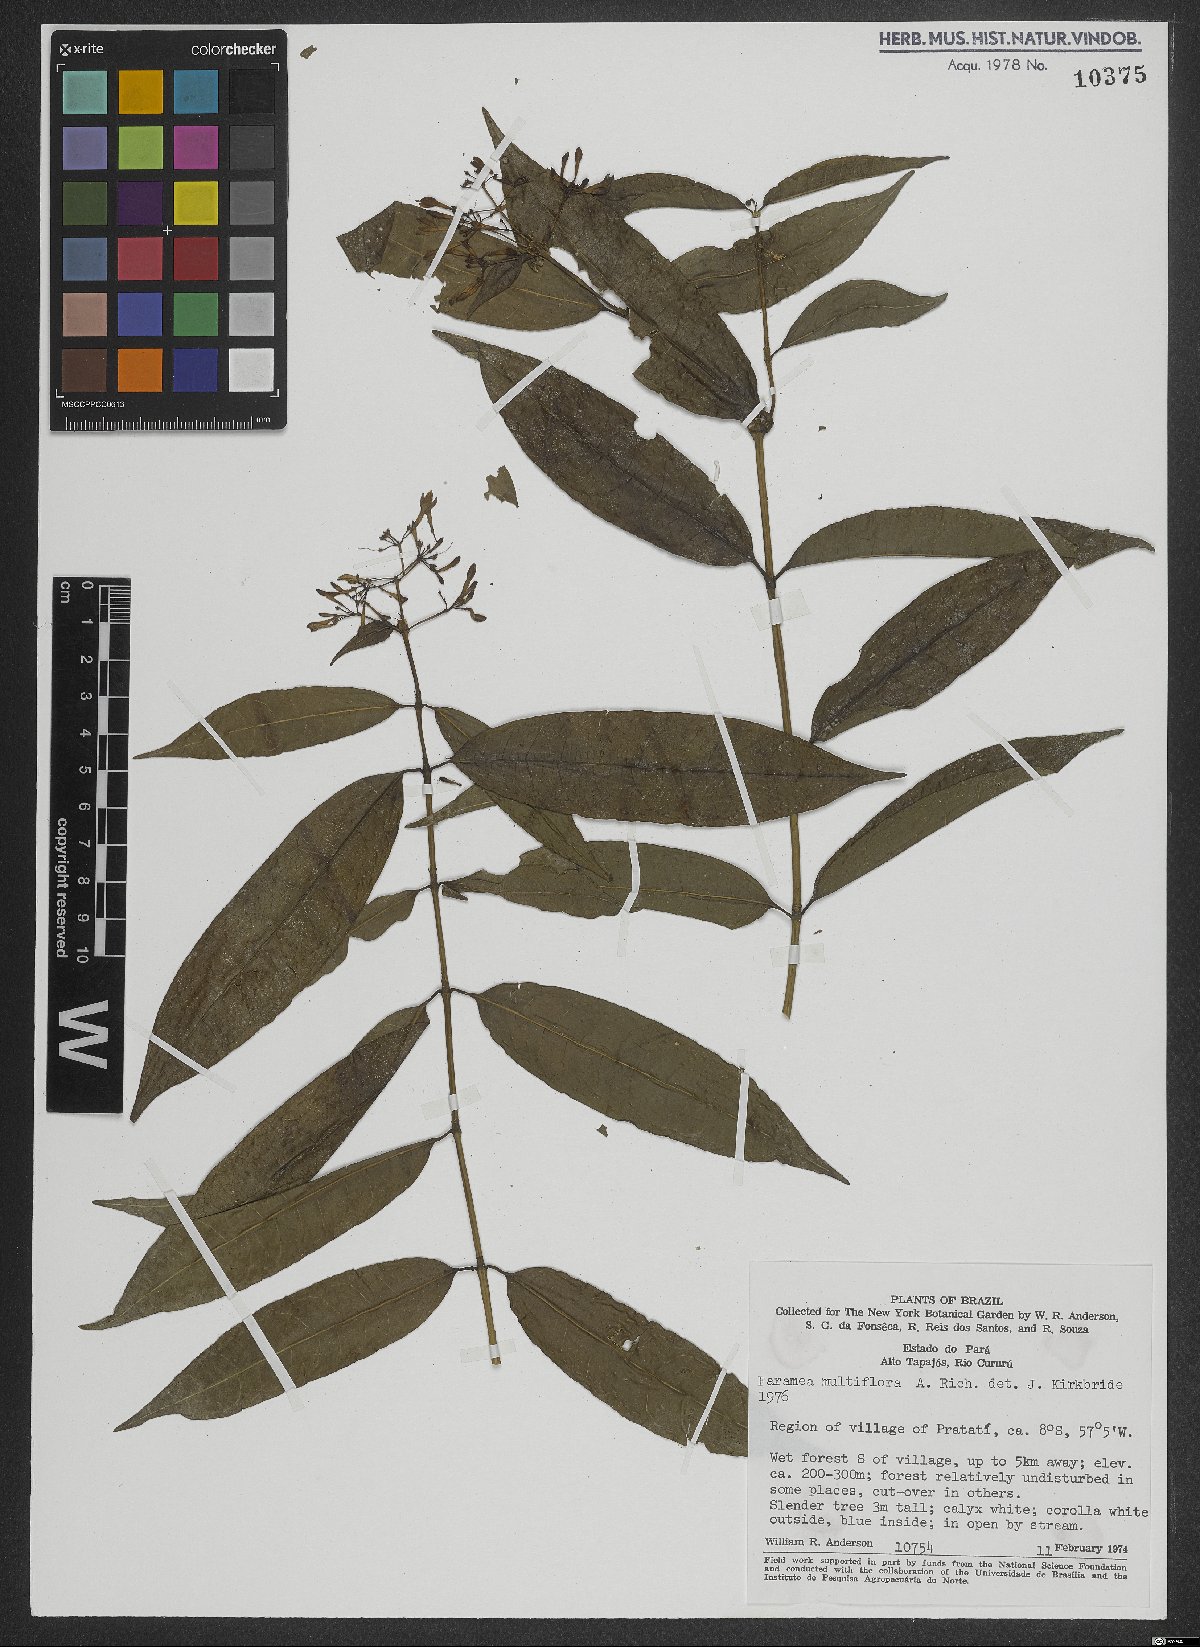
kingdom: Plantae
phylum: Tracheophyta
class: Magnoliopsida
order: Gentianales
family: Rubiaceae
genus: Faramea
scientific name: Faramea multiflora
